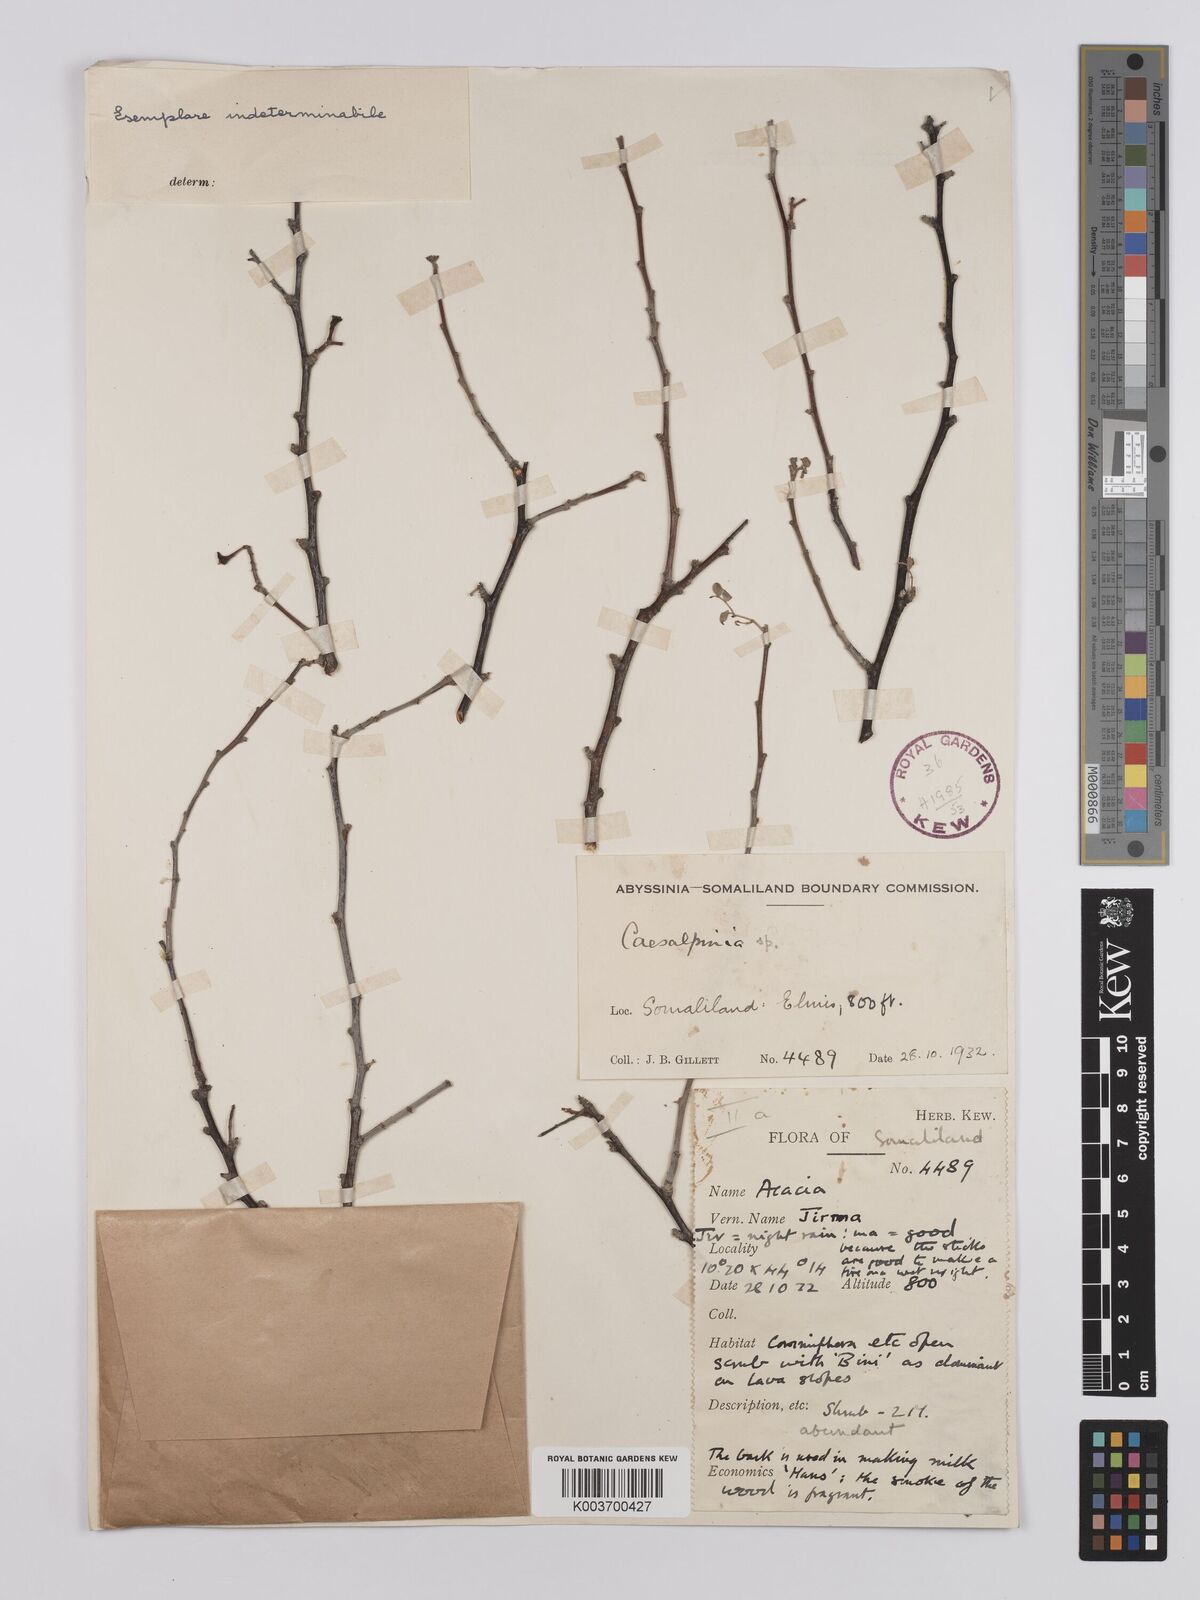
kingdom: Plantae
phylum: Tracheophyta
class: Magnoliopsida
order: Fabales
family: Fabaceae
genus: Denisophytum
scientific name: Denisophytum eriantherum
